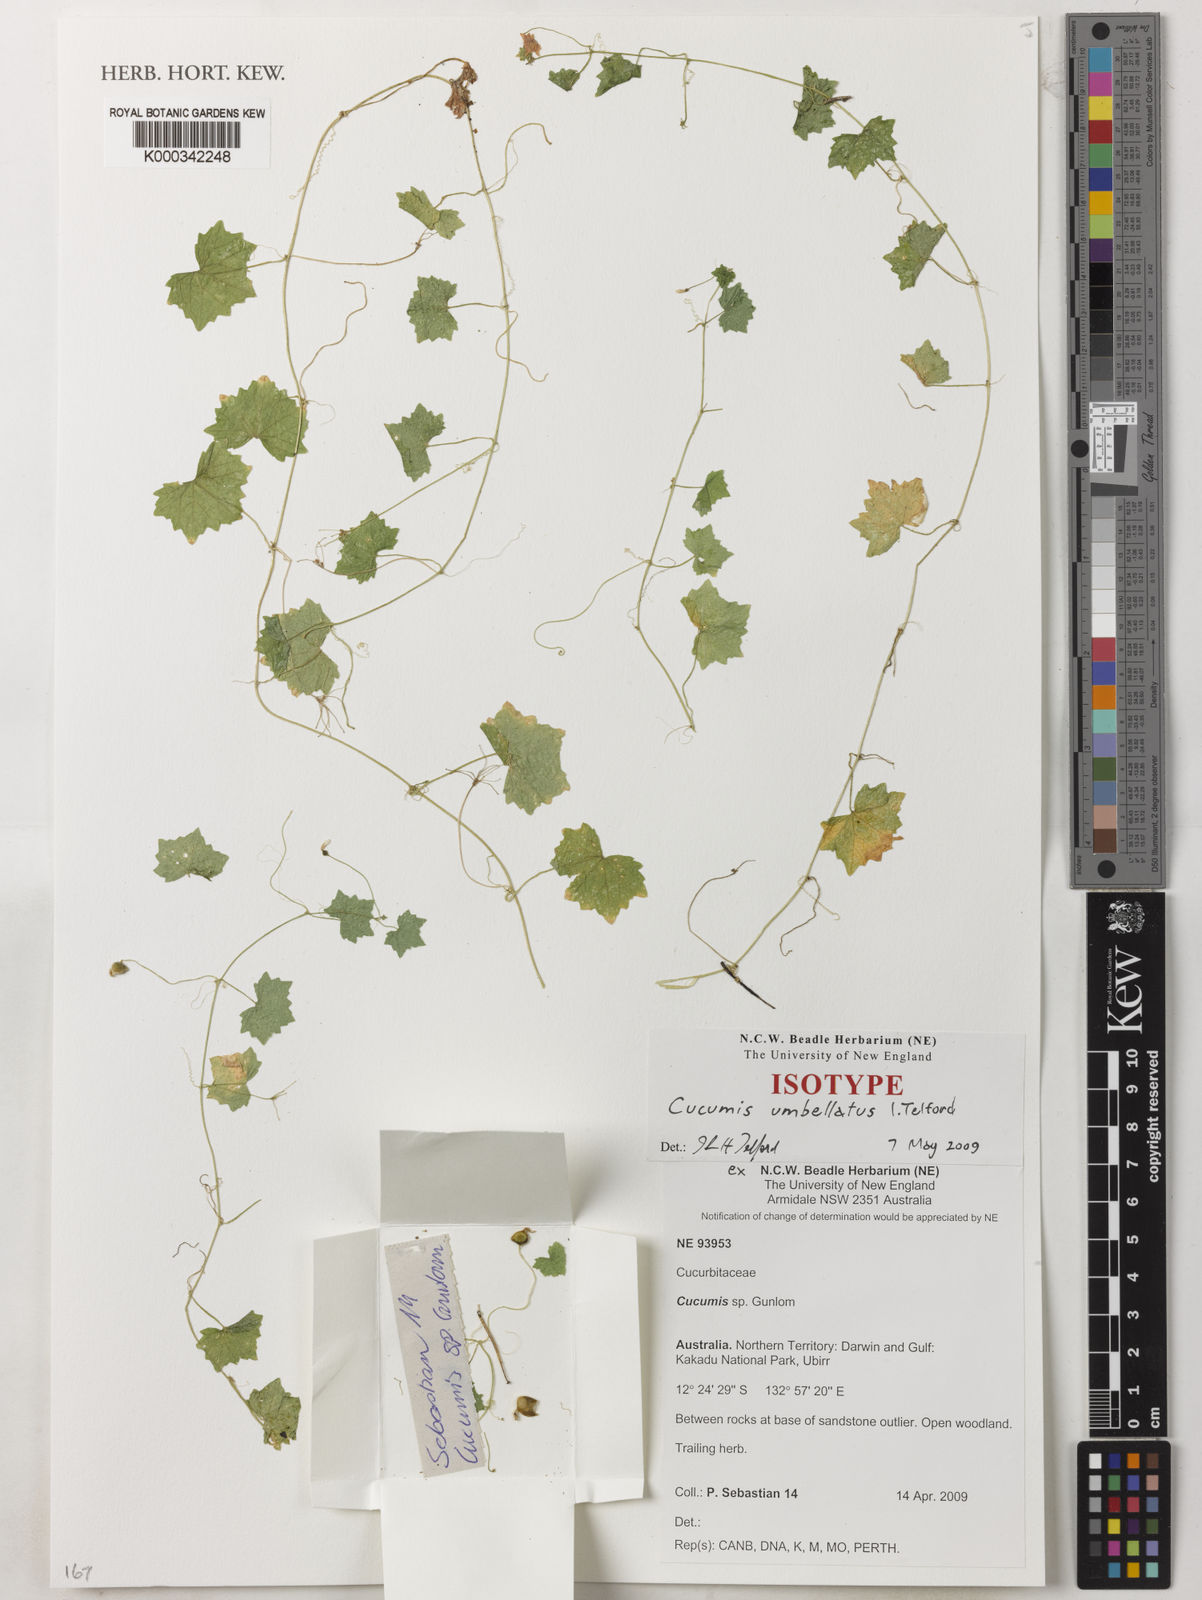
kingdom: Plantae
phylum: Tracheophyta
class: Magnoliopsida
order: Cucurbitales
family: Cucurbitaceae
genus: Cucumis
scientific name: Cucumis umbellatus
